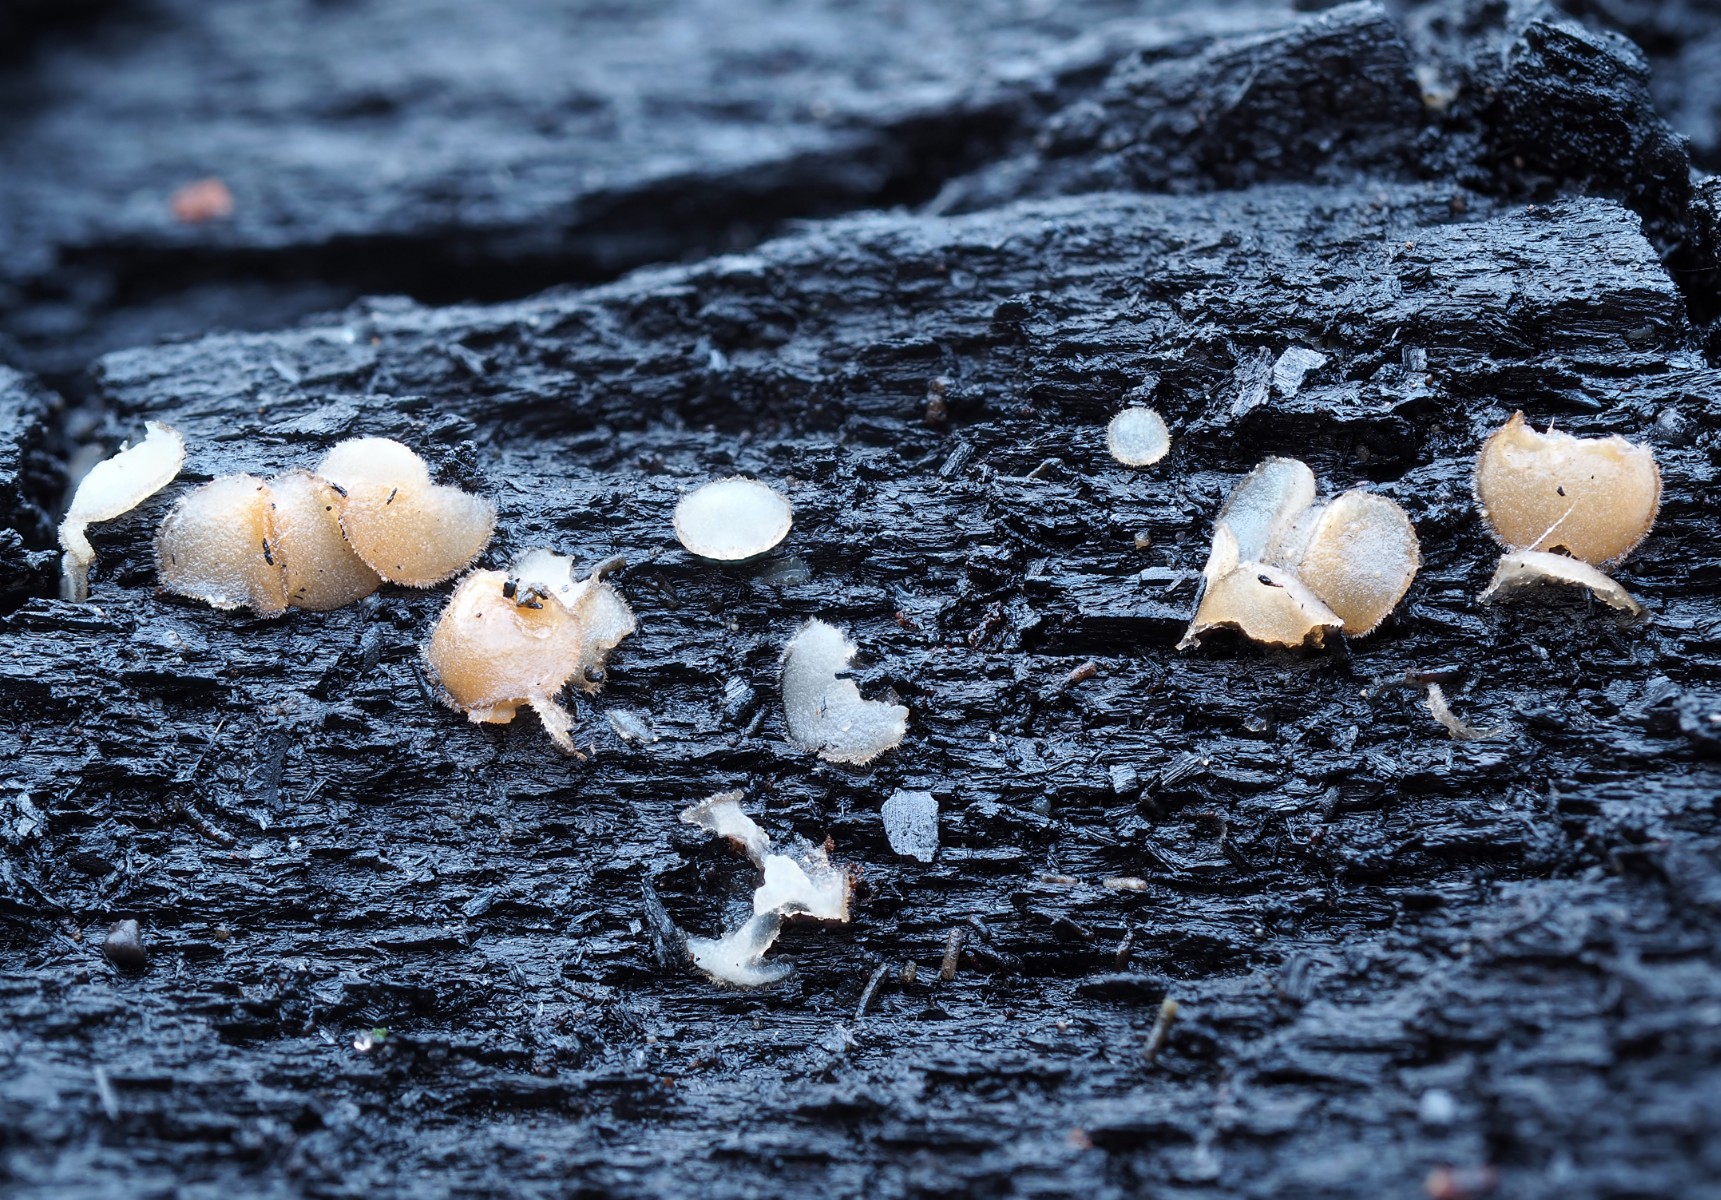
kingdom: Fungi
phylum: Ascomycota
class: Pezizomycetes
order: Pezizales
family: Pyronemataceae
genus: Trichophaea
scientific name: Trichophaea abundans
